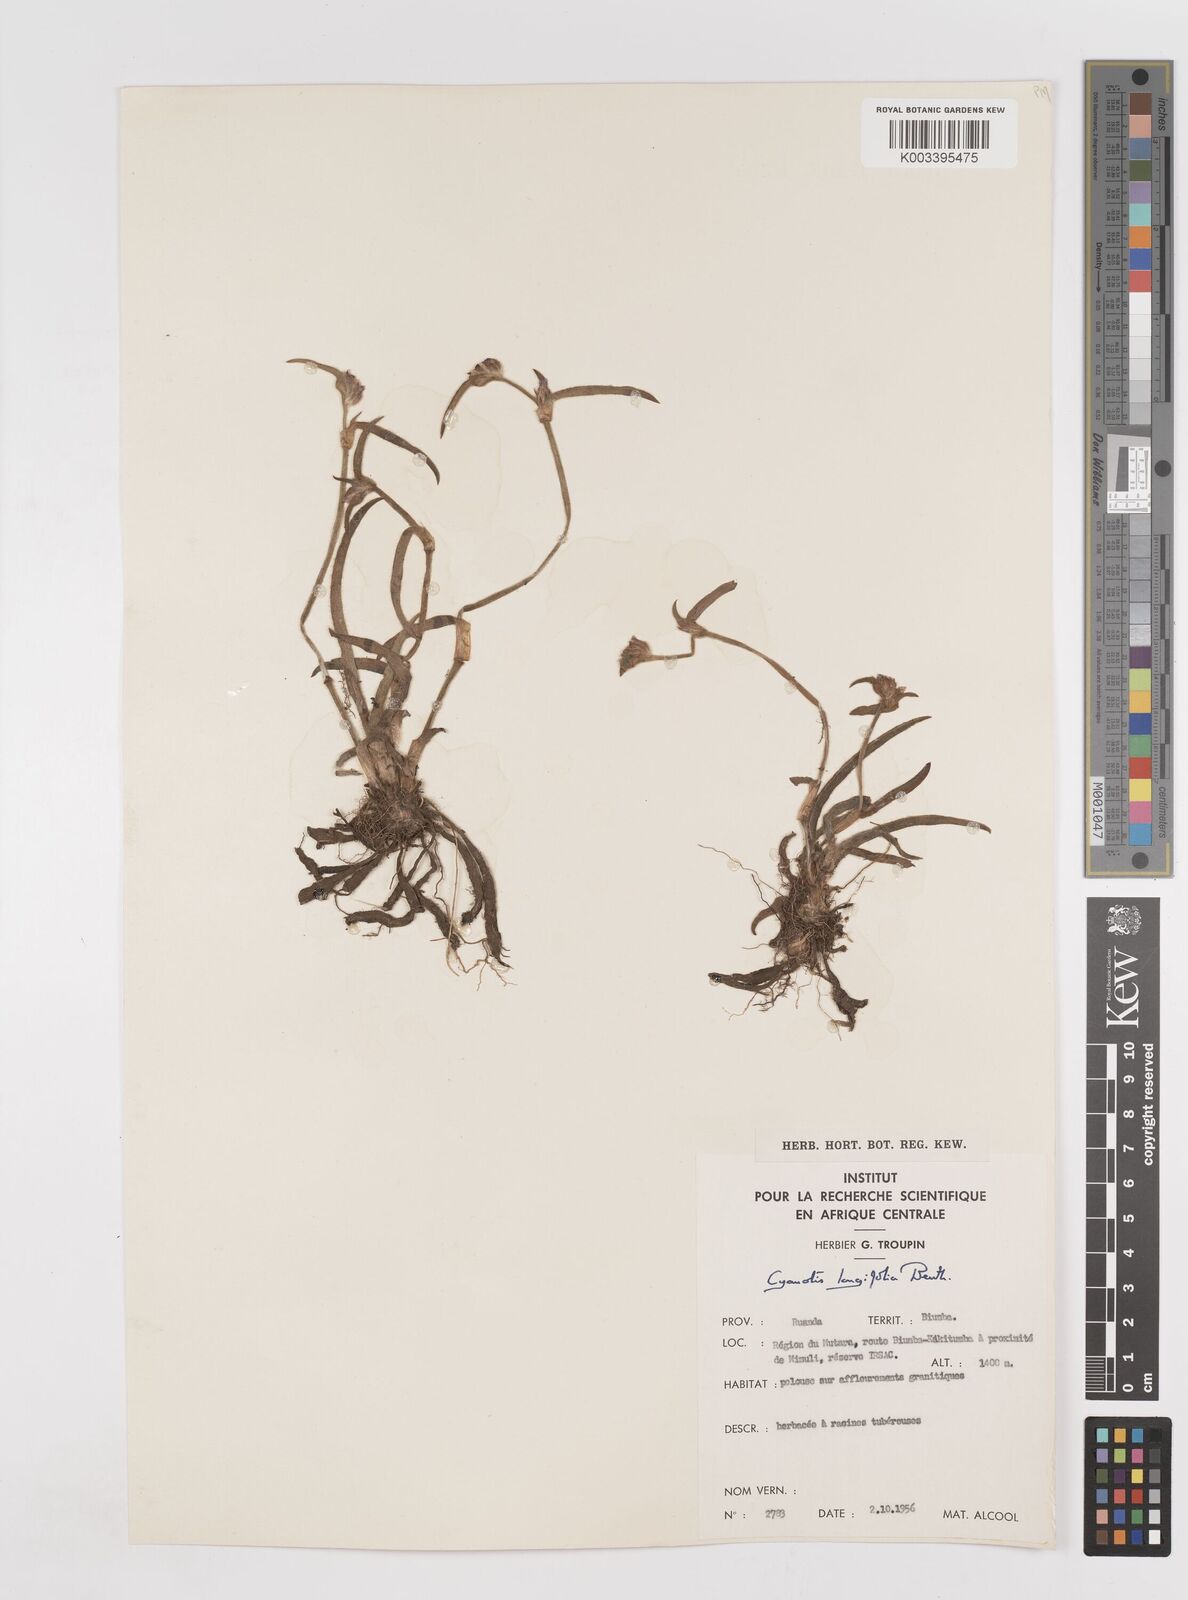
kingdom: Plantae
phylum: Tracheophyta
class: Liliopsida
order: Commelinales
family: Commelinaceae
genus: Cyanotis
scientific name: Cyanotis longifolia
